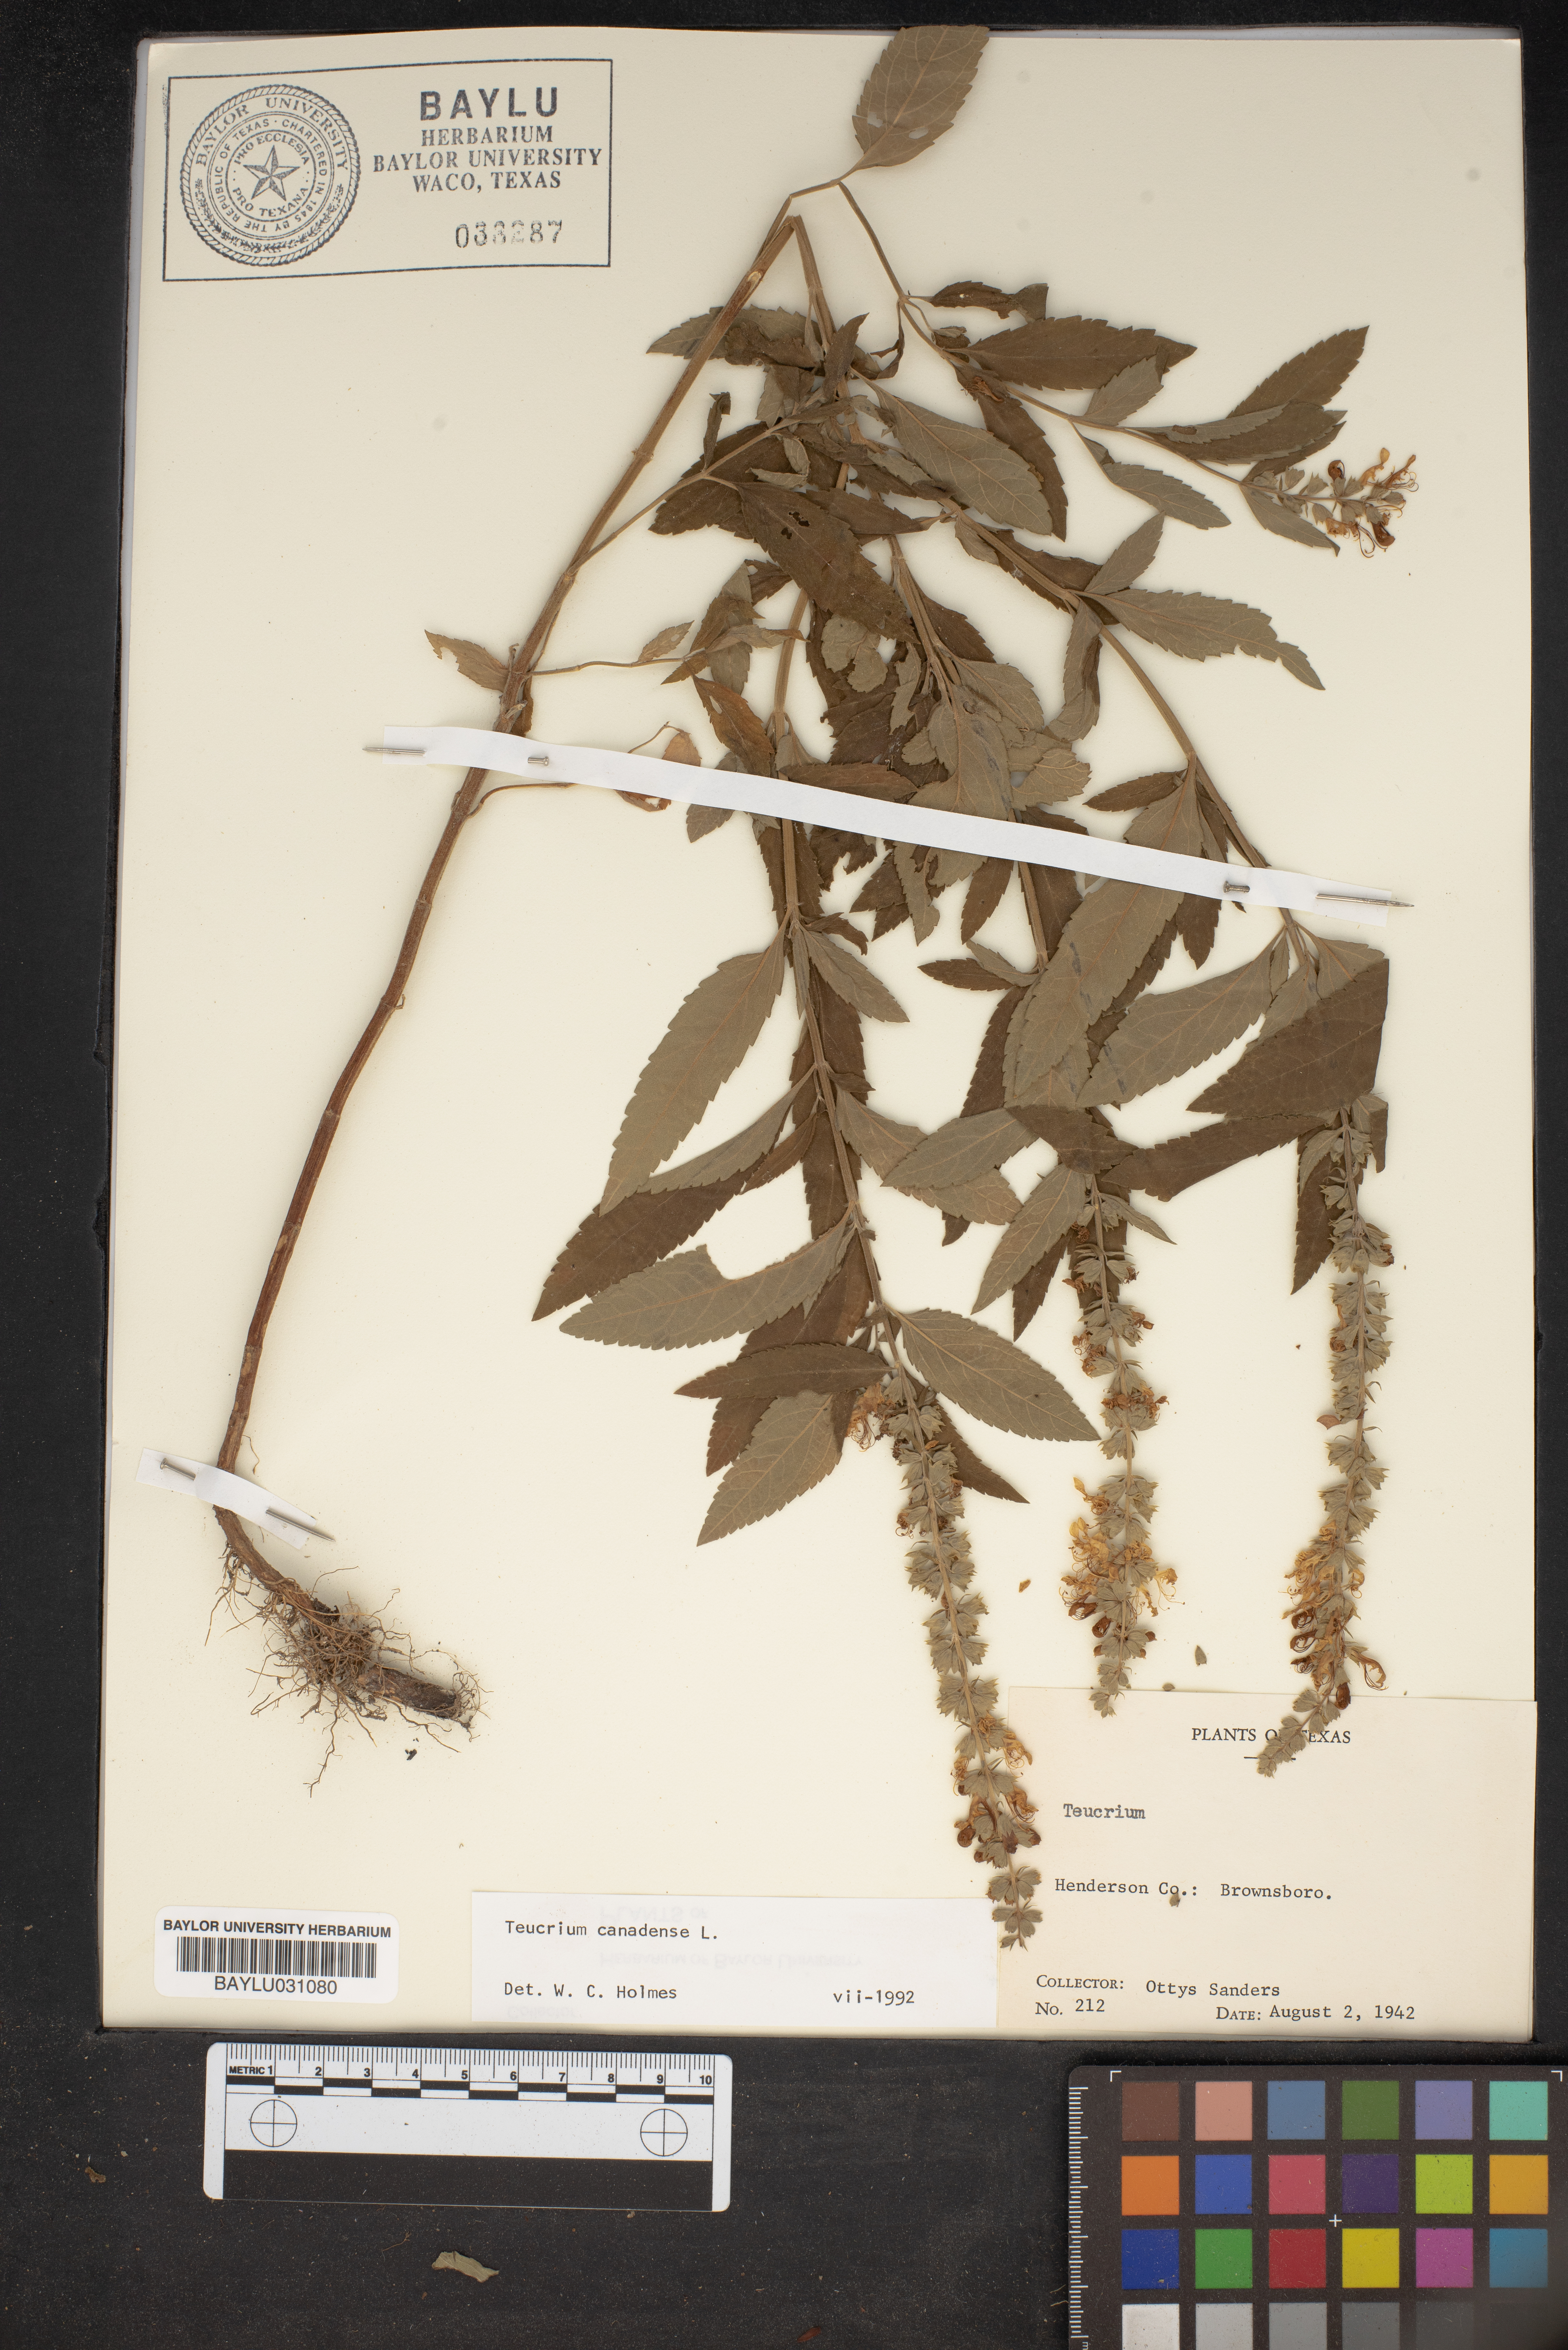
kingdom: Plantae
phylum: Tracheophyta
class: Magnoliopsida
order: Lamiales
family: Lamiaceae
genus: Teucrium
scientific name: Teucrium canadense
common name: American germander
